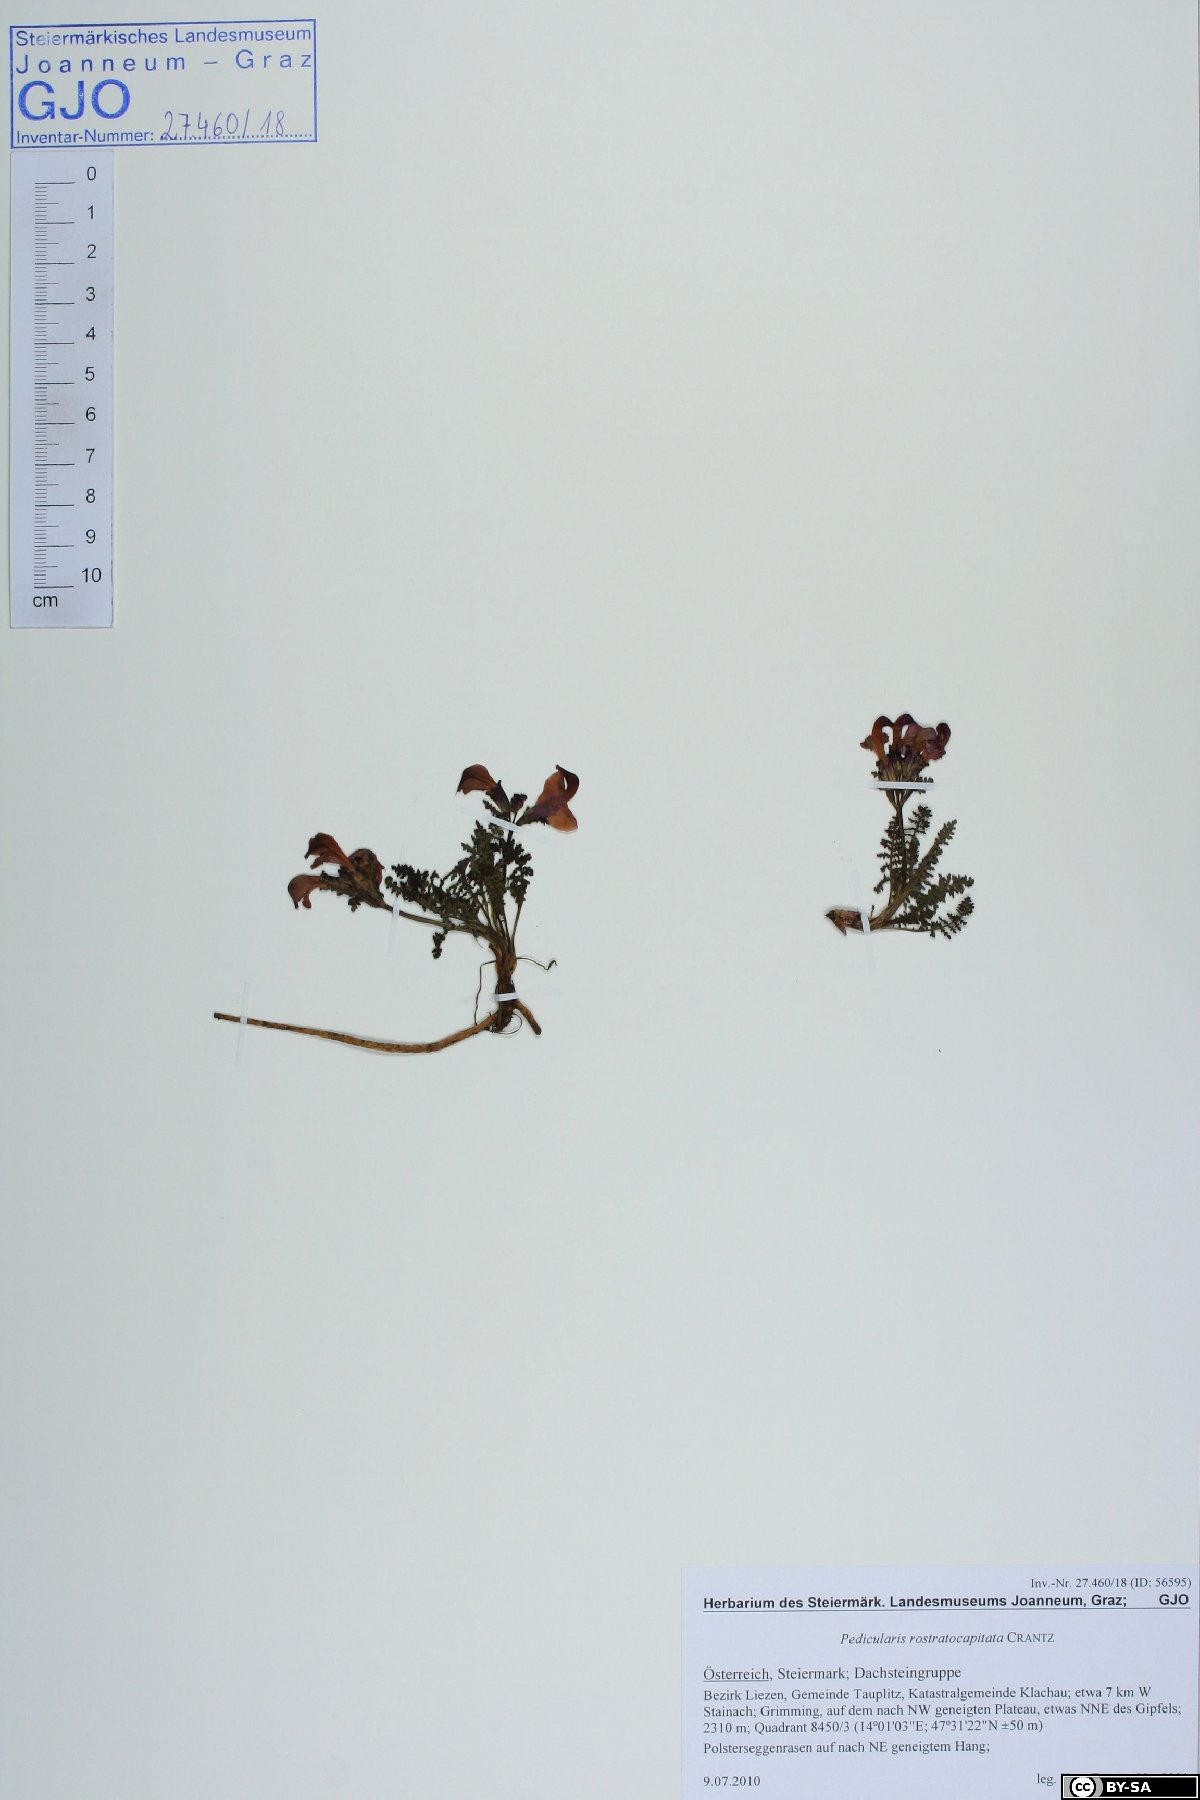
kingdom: Plantae
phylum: Tracheophyta
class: Magnoliopsida
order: Lamiales
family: Orobanchaceae
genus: Pedicularis
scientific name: Pedicularis rostratocapitata
